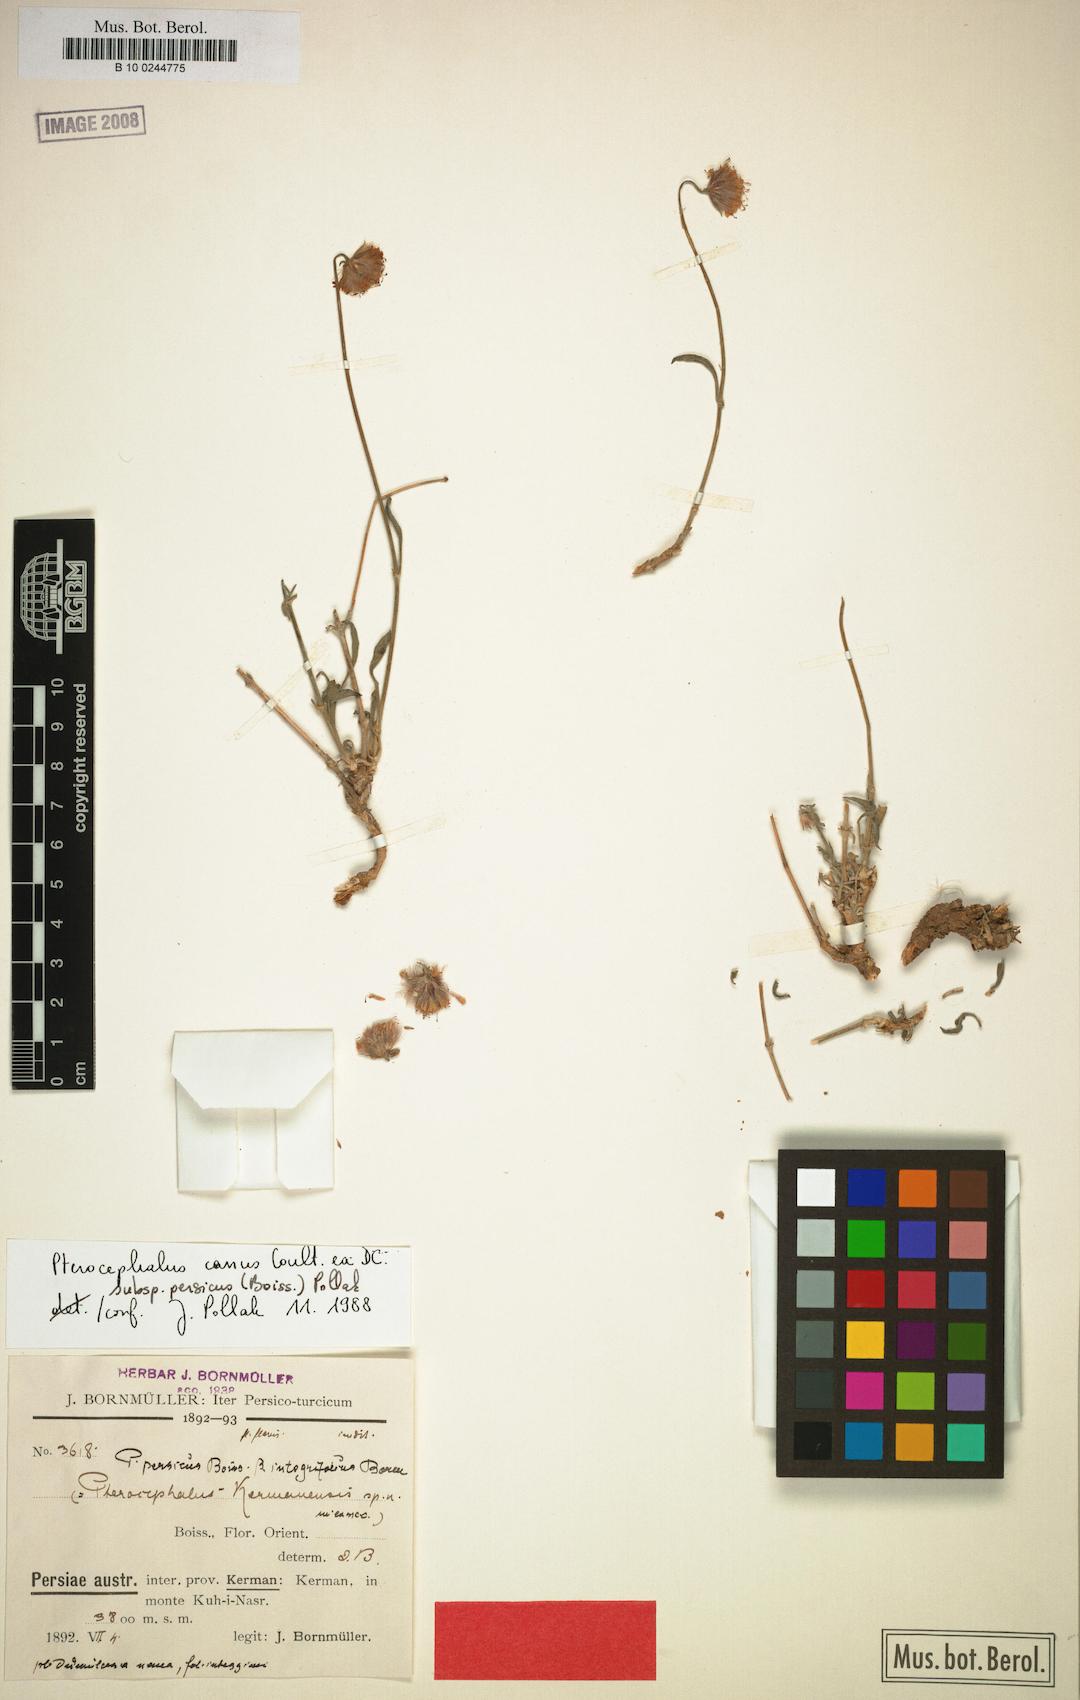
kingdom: Plantae
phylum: Tracheophyta
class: Magnoliopsida
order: Dipsacales
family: Caprifoliaceae
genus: Pterocephalus
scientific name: Pterocephalus canus
